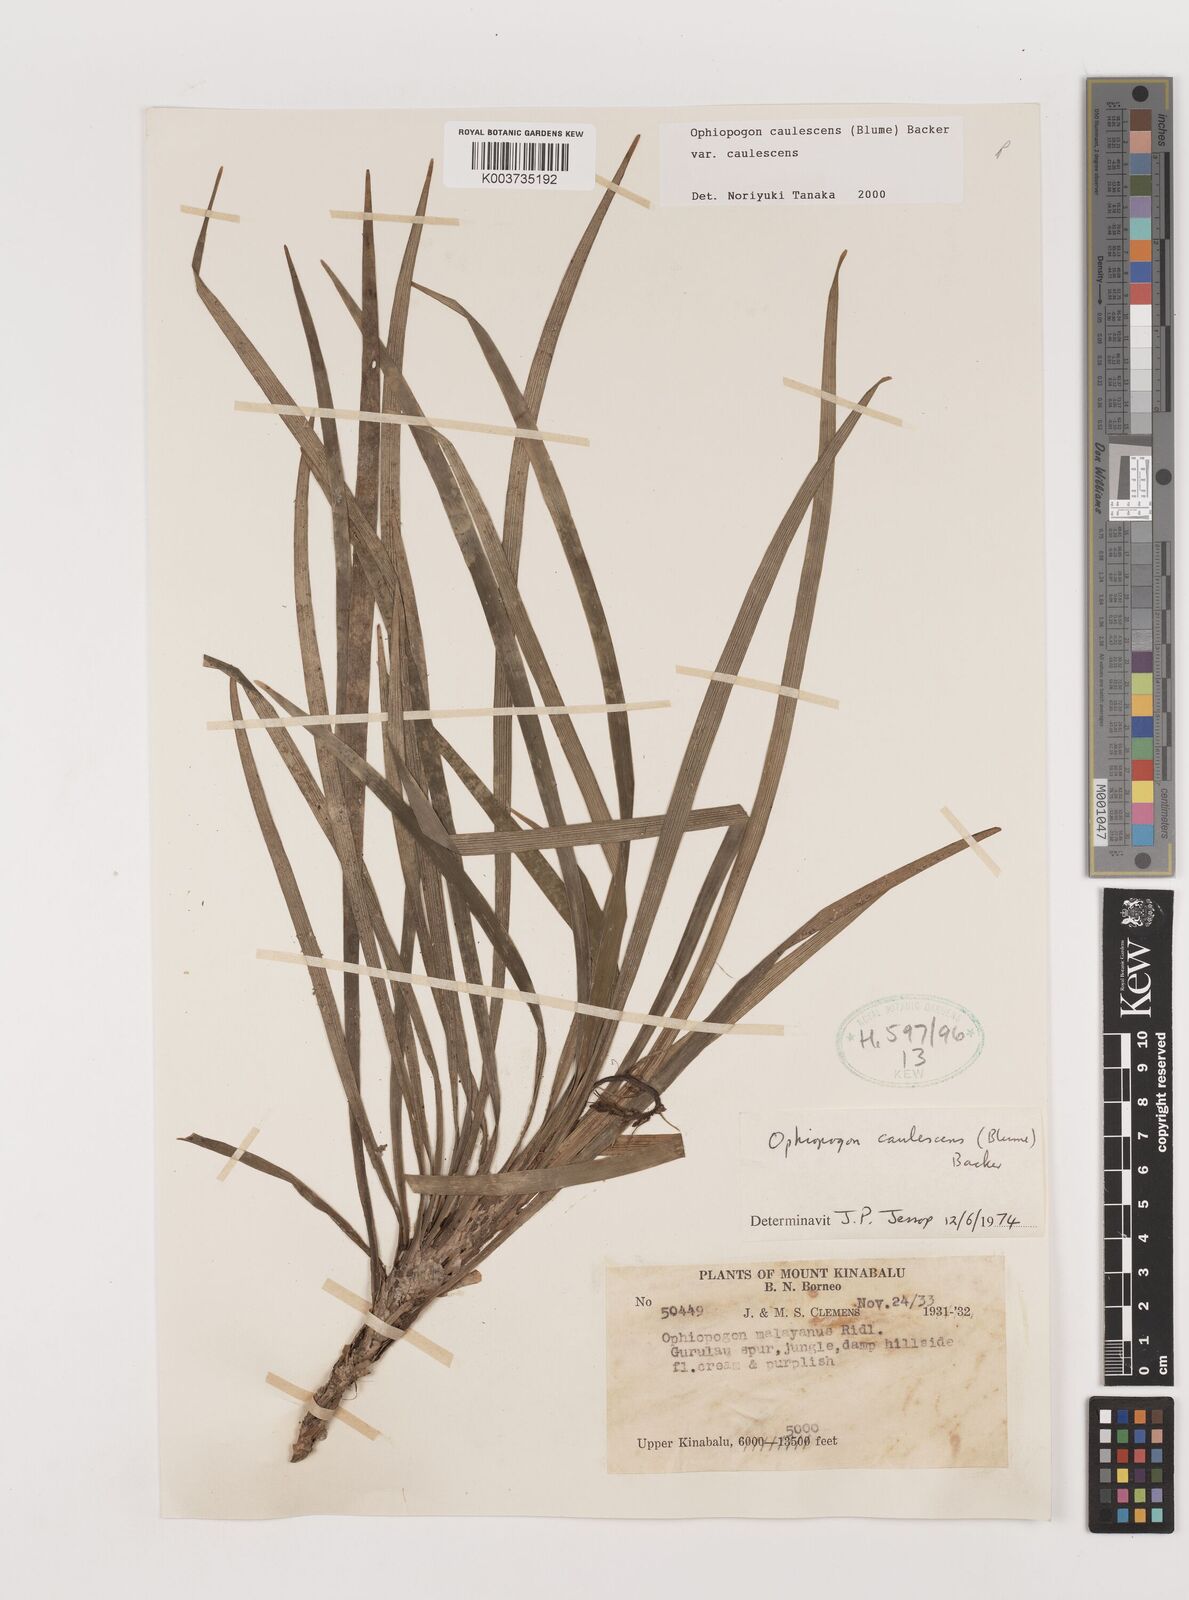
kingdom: Plantae
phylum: Tracheophyta
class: Liliopsida
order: Asparagales
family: Asparagaceae
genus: Ophiopogon
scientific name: Ophiopogon caulescens
